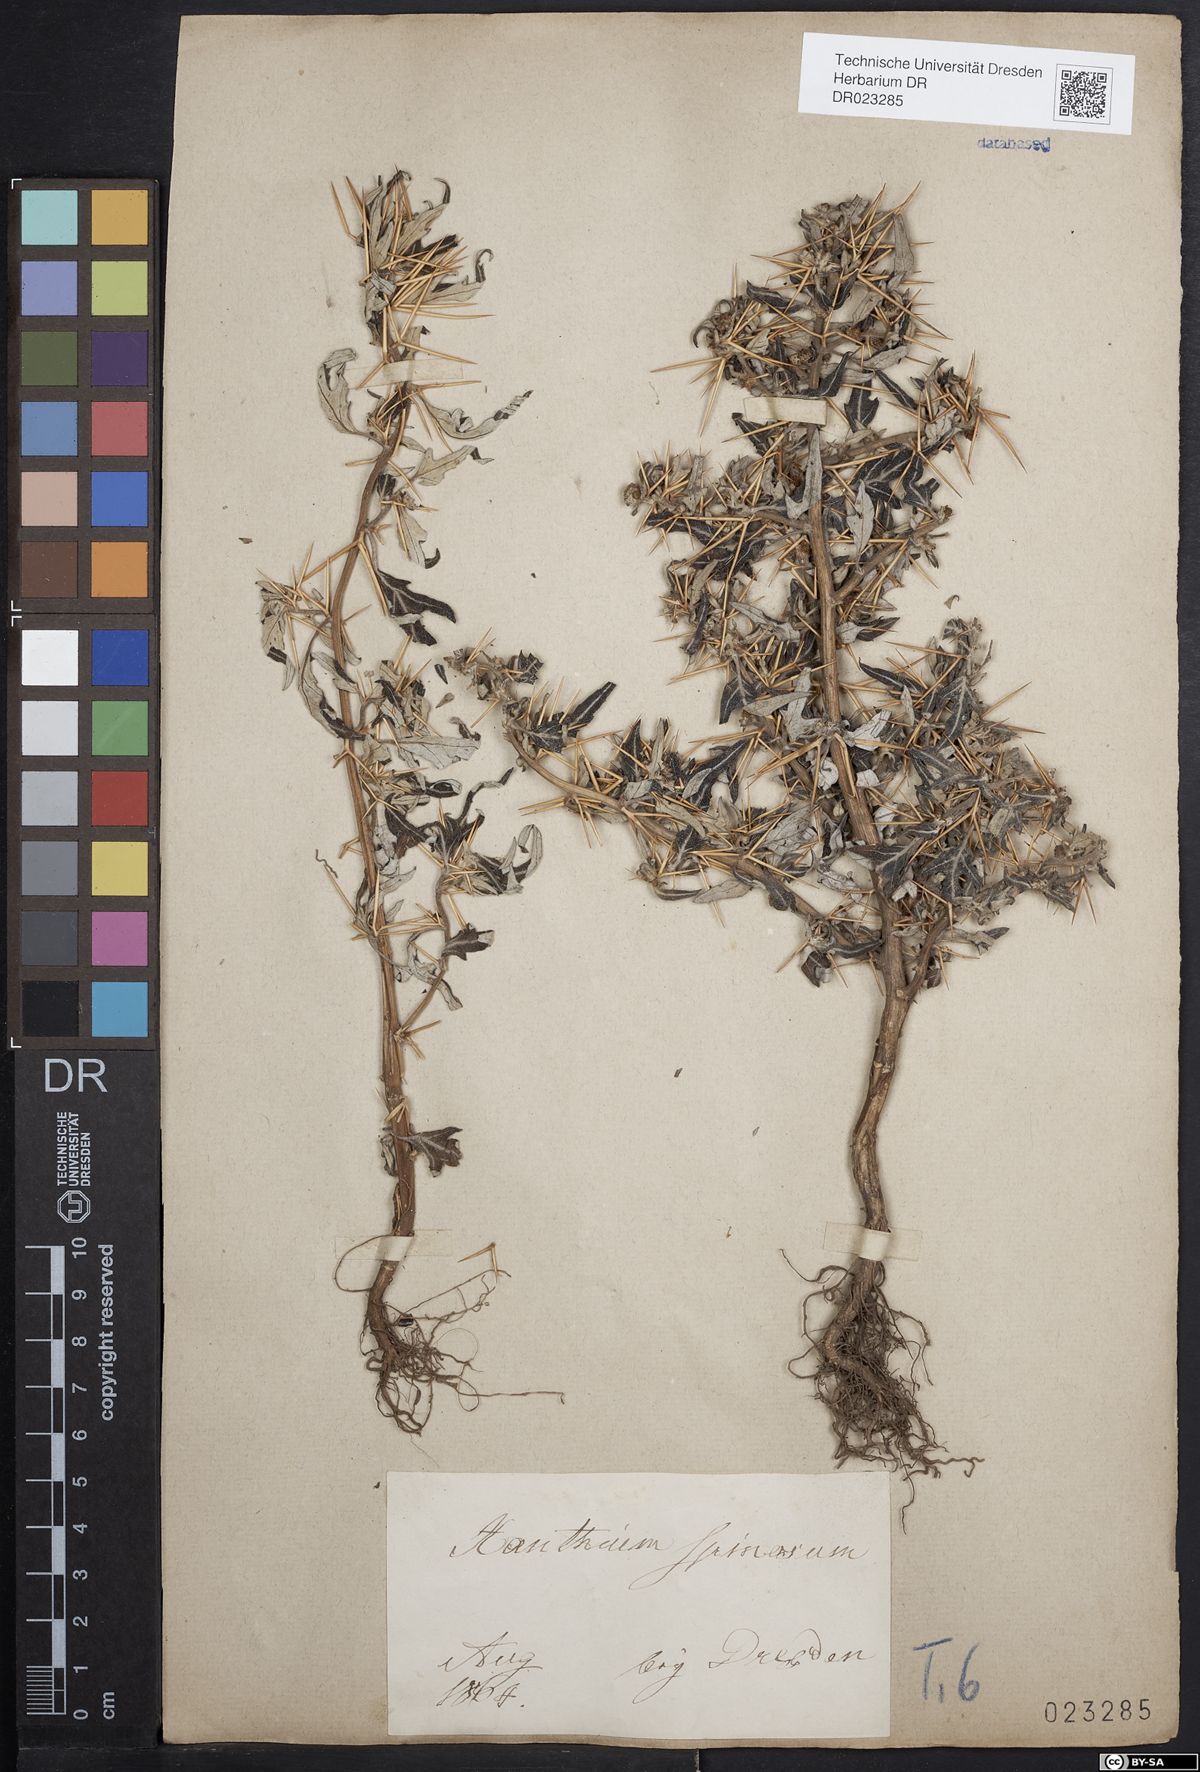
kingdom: Plantae
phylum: Tracheophyta
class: Magnoliopsida
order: Asterales
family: Asteraceae
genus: Xanthium
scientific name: Xanthium spinosum
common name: Spiny cocklebur
